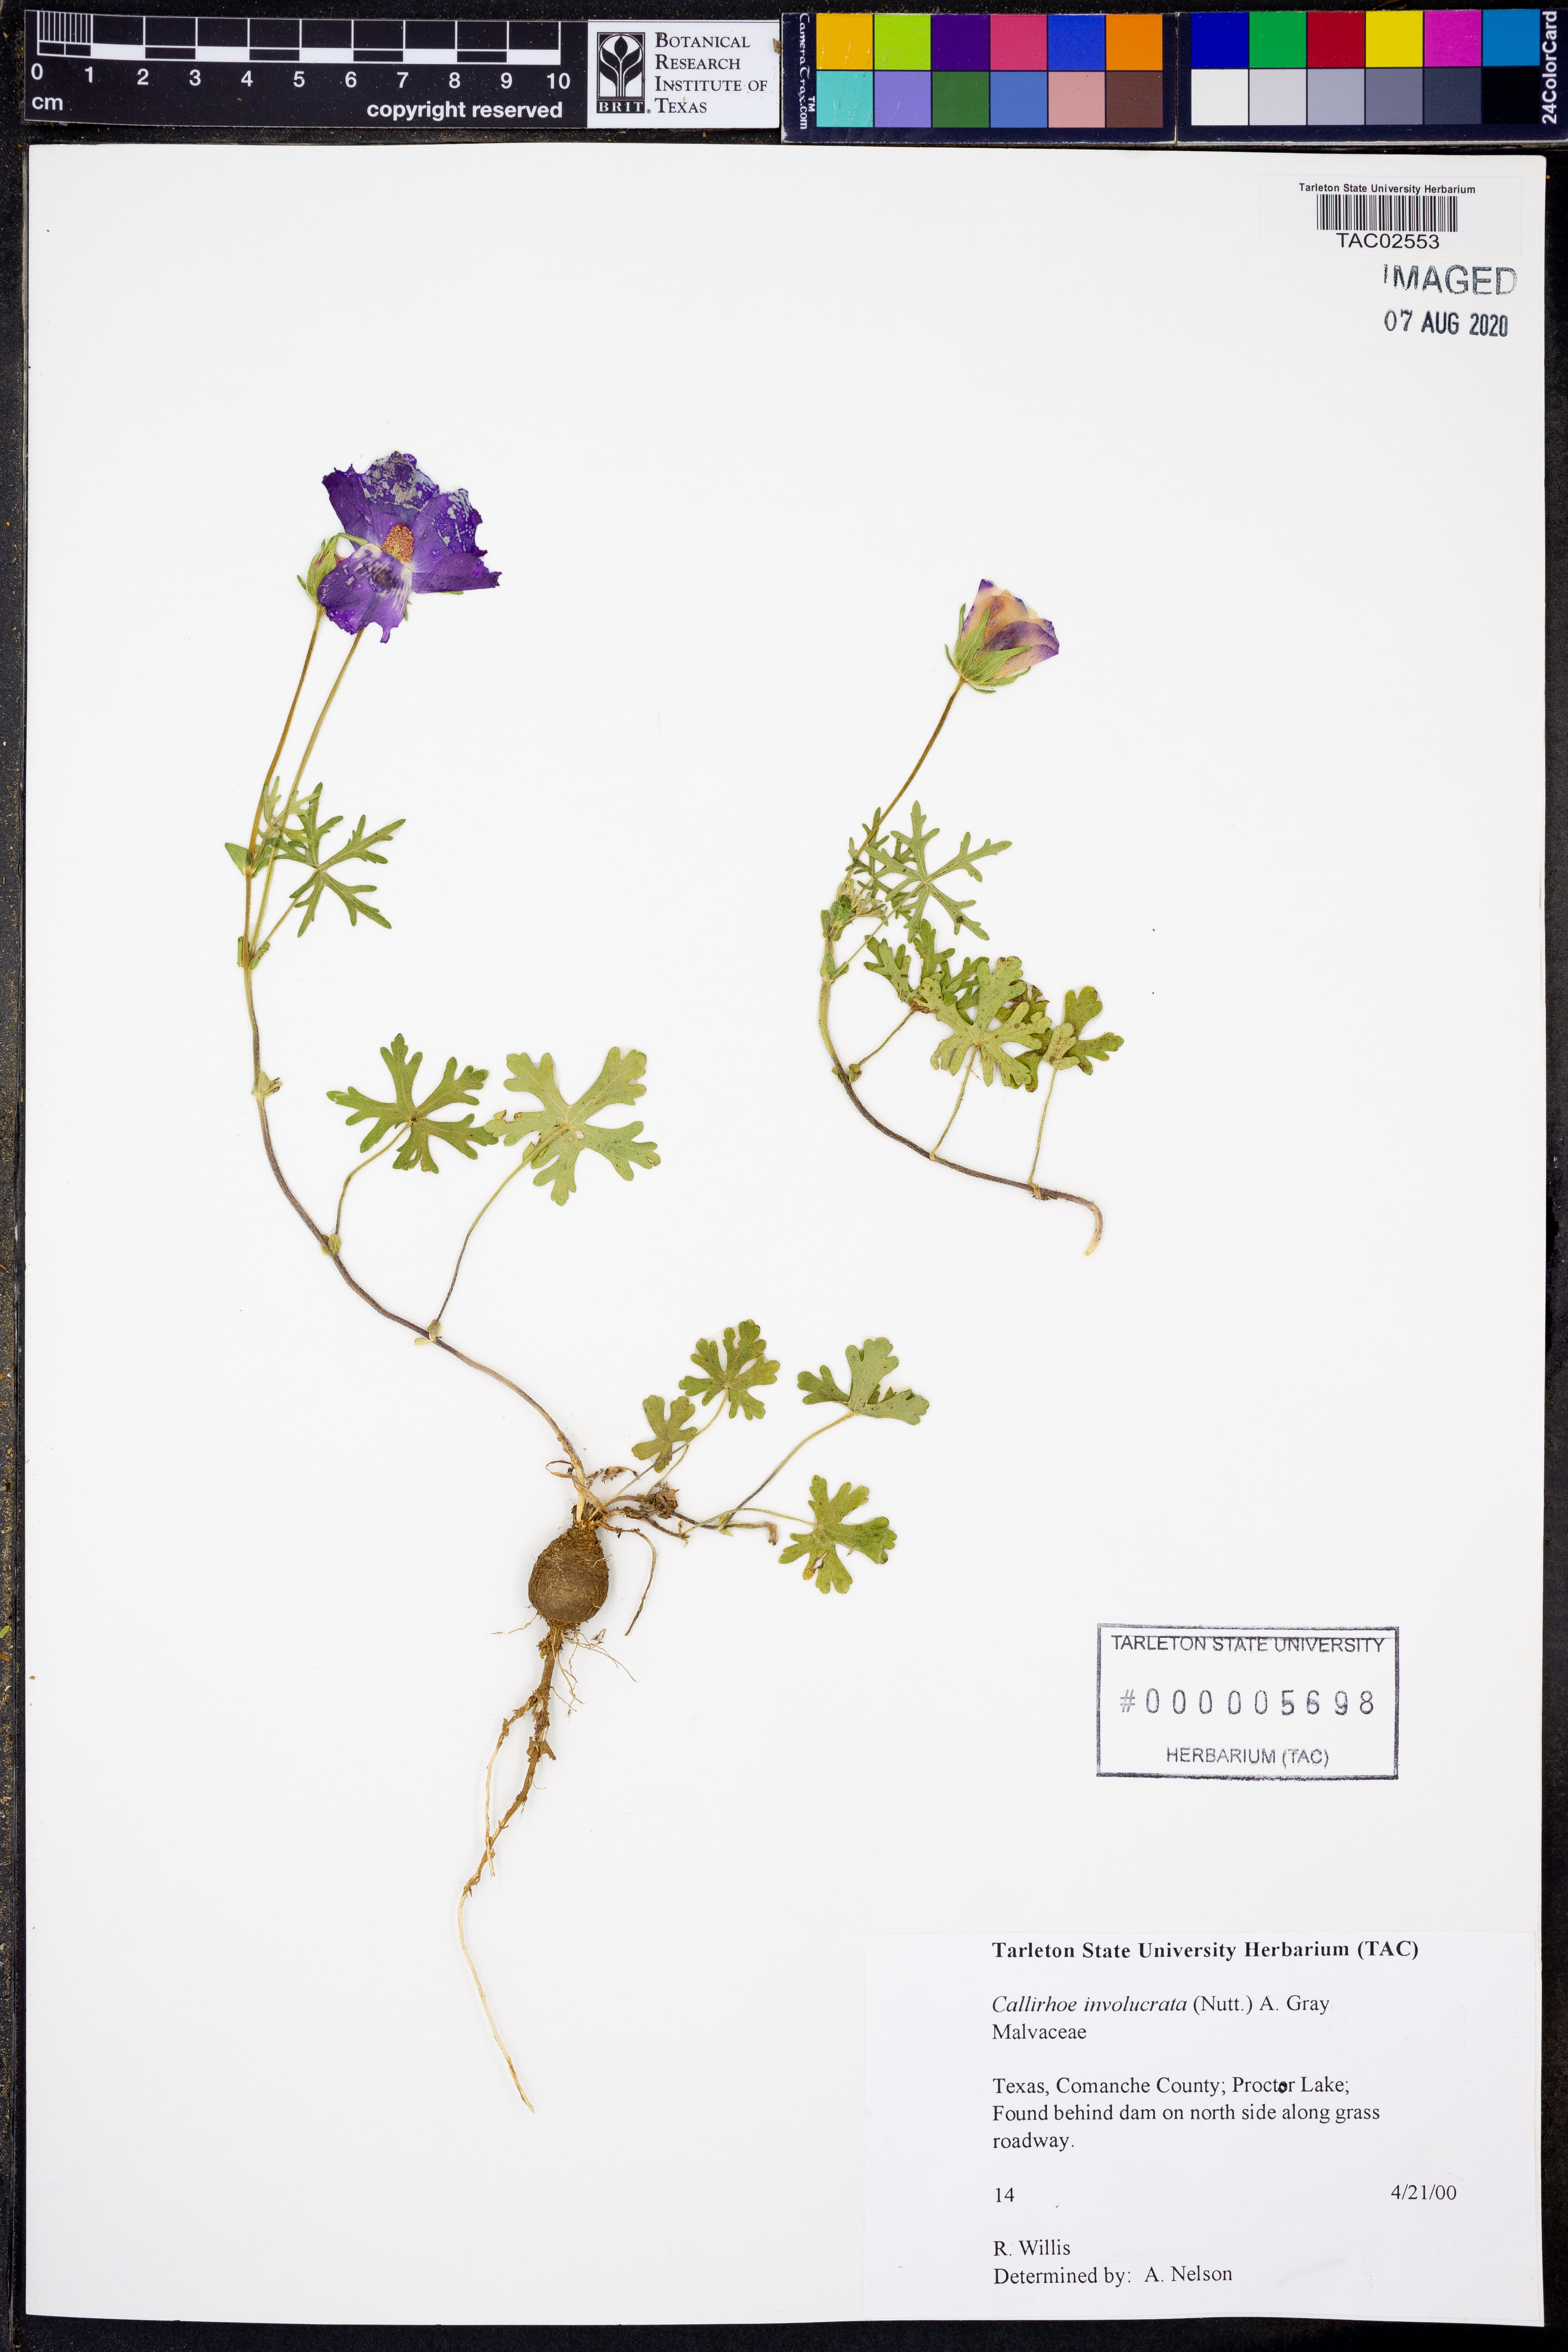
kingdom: Plantae
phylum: Tracheophyta
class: Magnoliopsida
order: Malvales
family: Malvaceae
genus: Callirhoe
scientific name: Callirhoe involucrata
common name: Purple poppy-mallow
